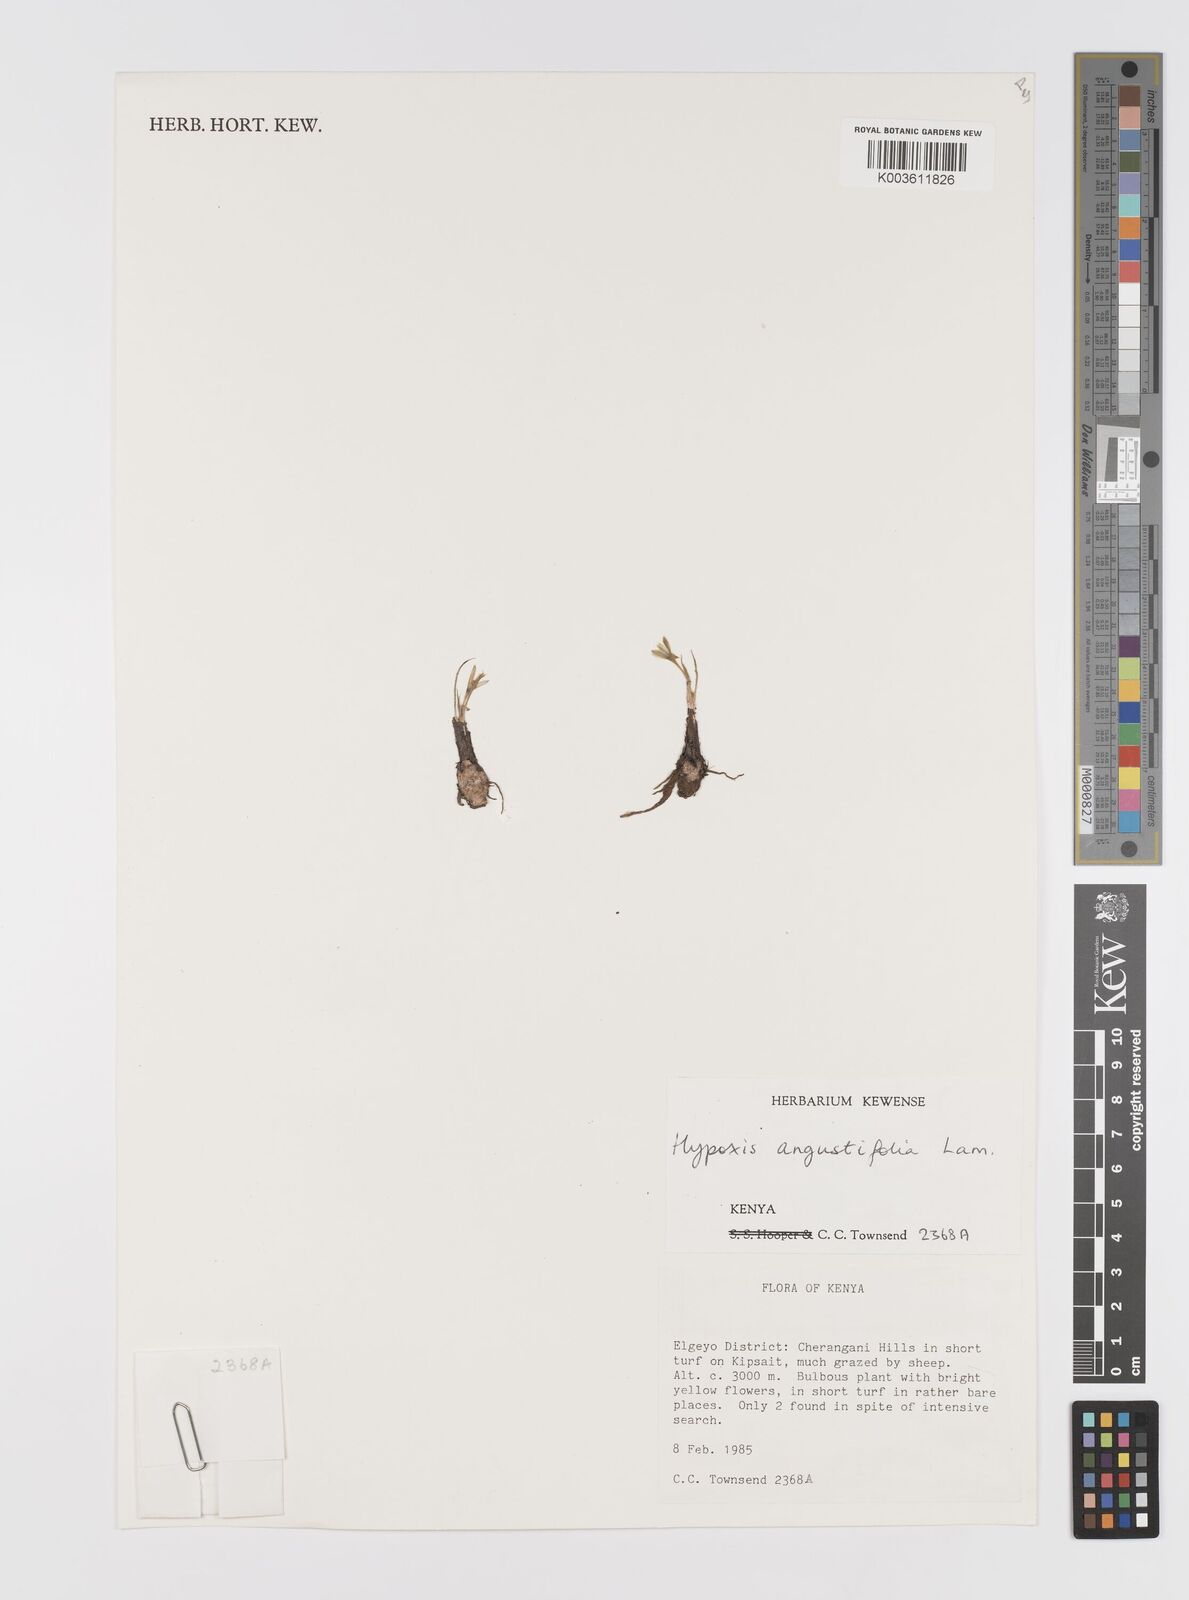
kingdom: Plantae
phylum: Tracheophyta
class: Liliopsida
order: Asparagales
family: Hypoxidaceae
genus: Hypoxis
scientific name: Hypoxis angustifolia
